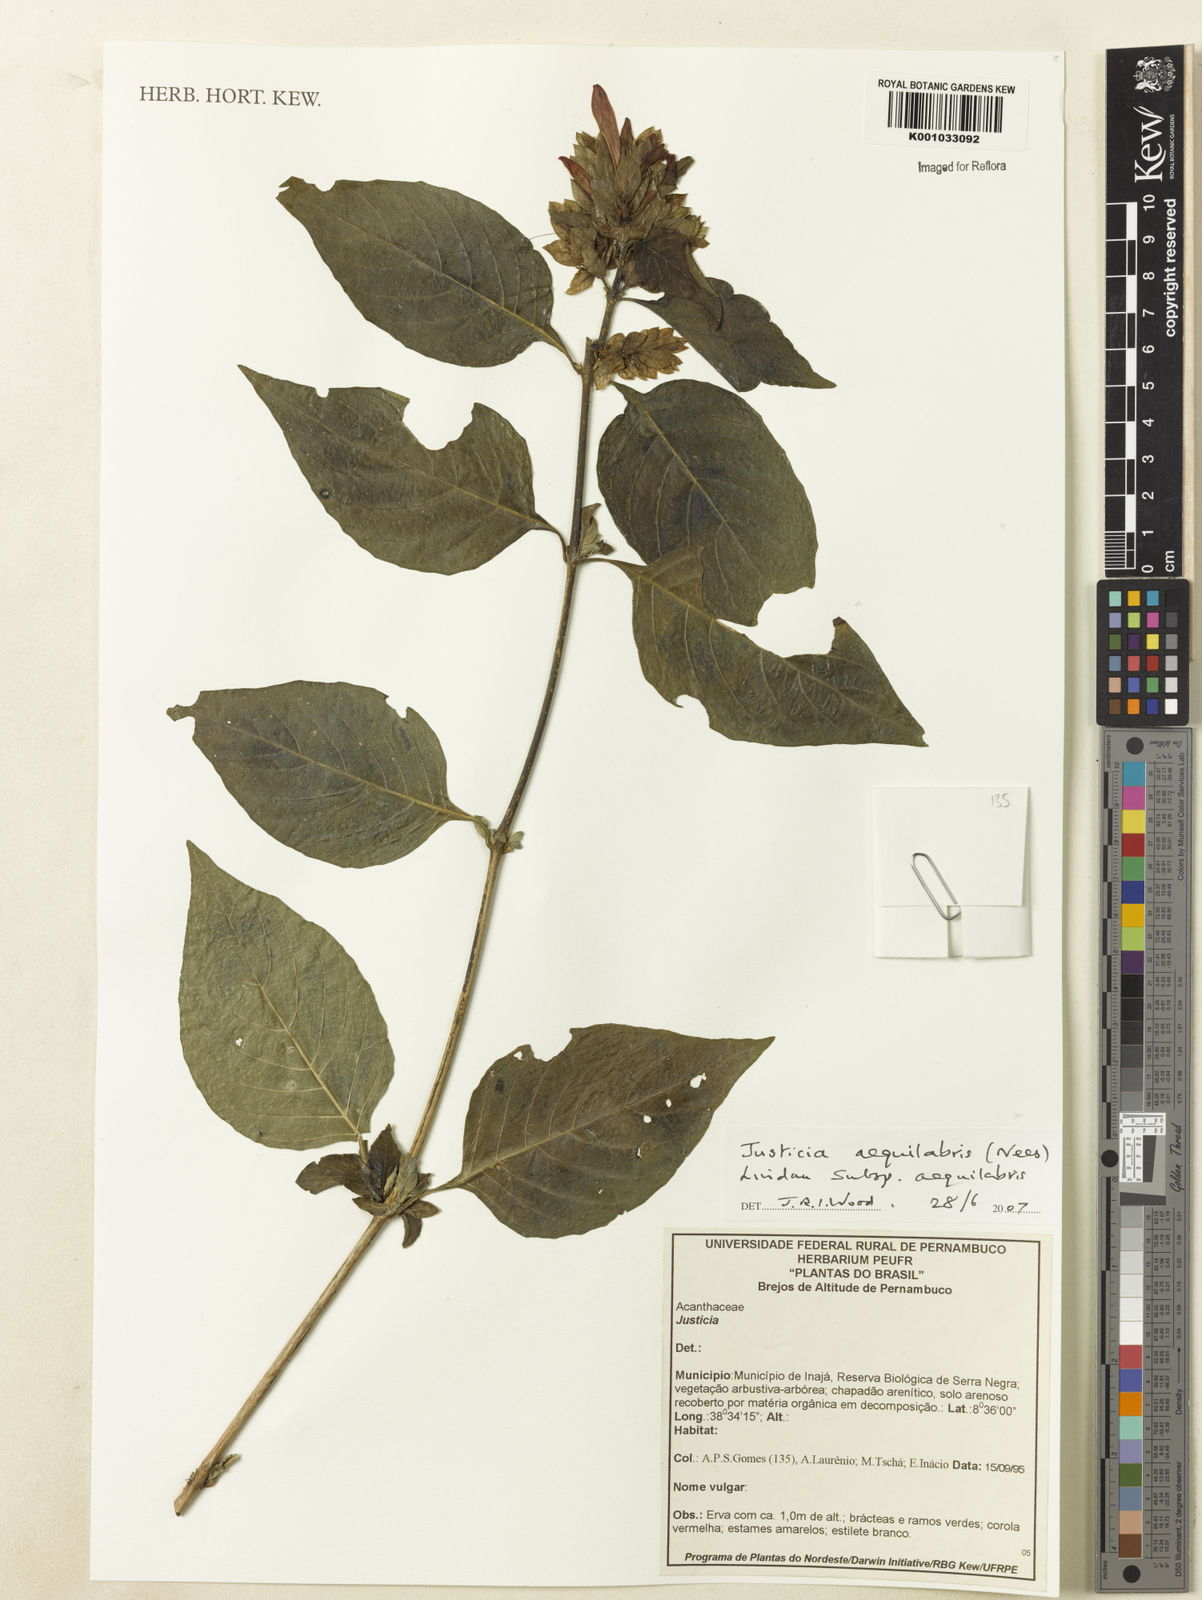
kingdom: Plantae
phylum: Tracheophyta
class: Magnoliopsida
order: Lamiales
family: Acanthaceae
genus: Justicia
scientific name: Justicia aequalis
